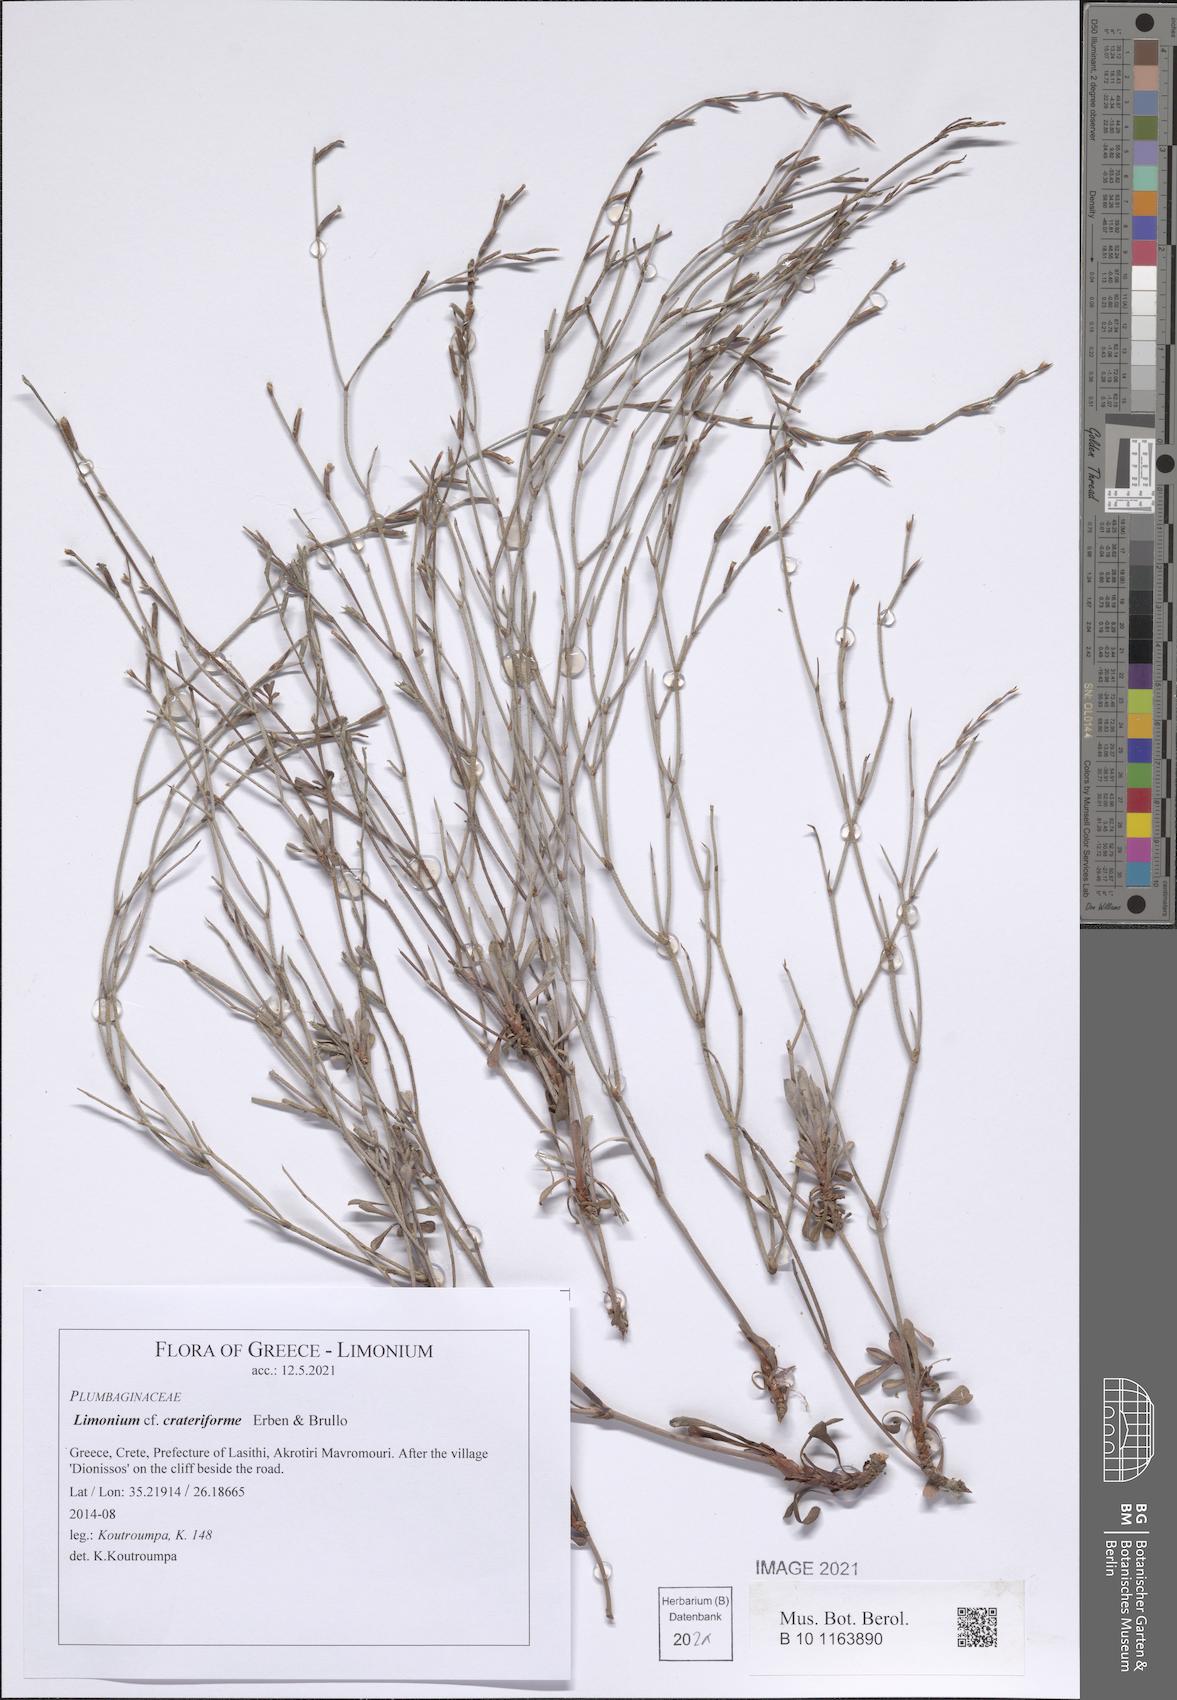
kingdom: Plantae
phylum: Tracheophyta
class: Magnoliopsida
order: Caryophyllales
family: Plumbaginaceae
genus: Limonium
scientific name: Limonium crateriforme
